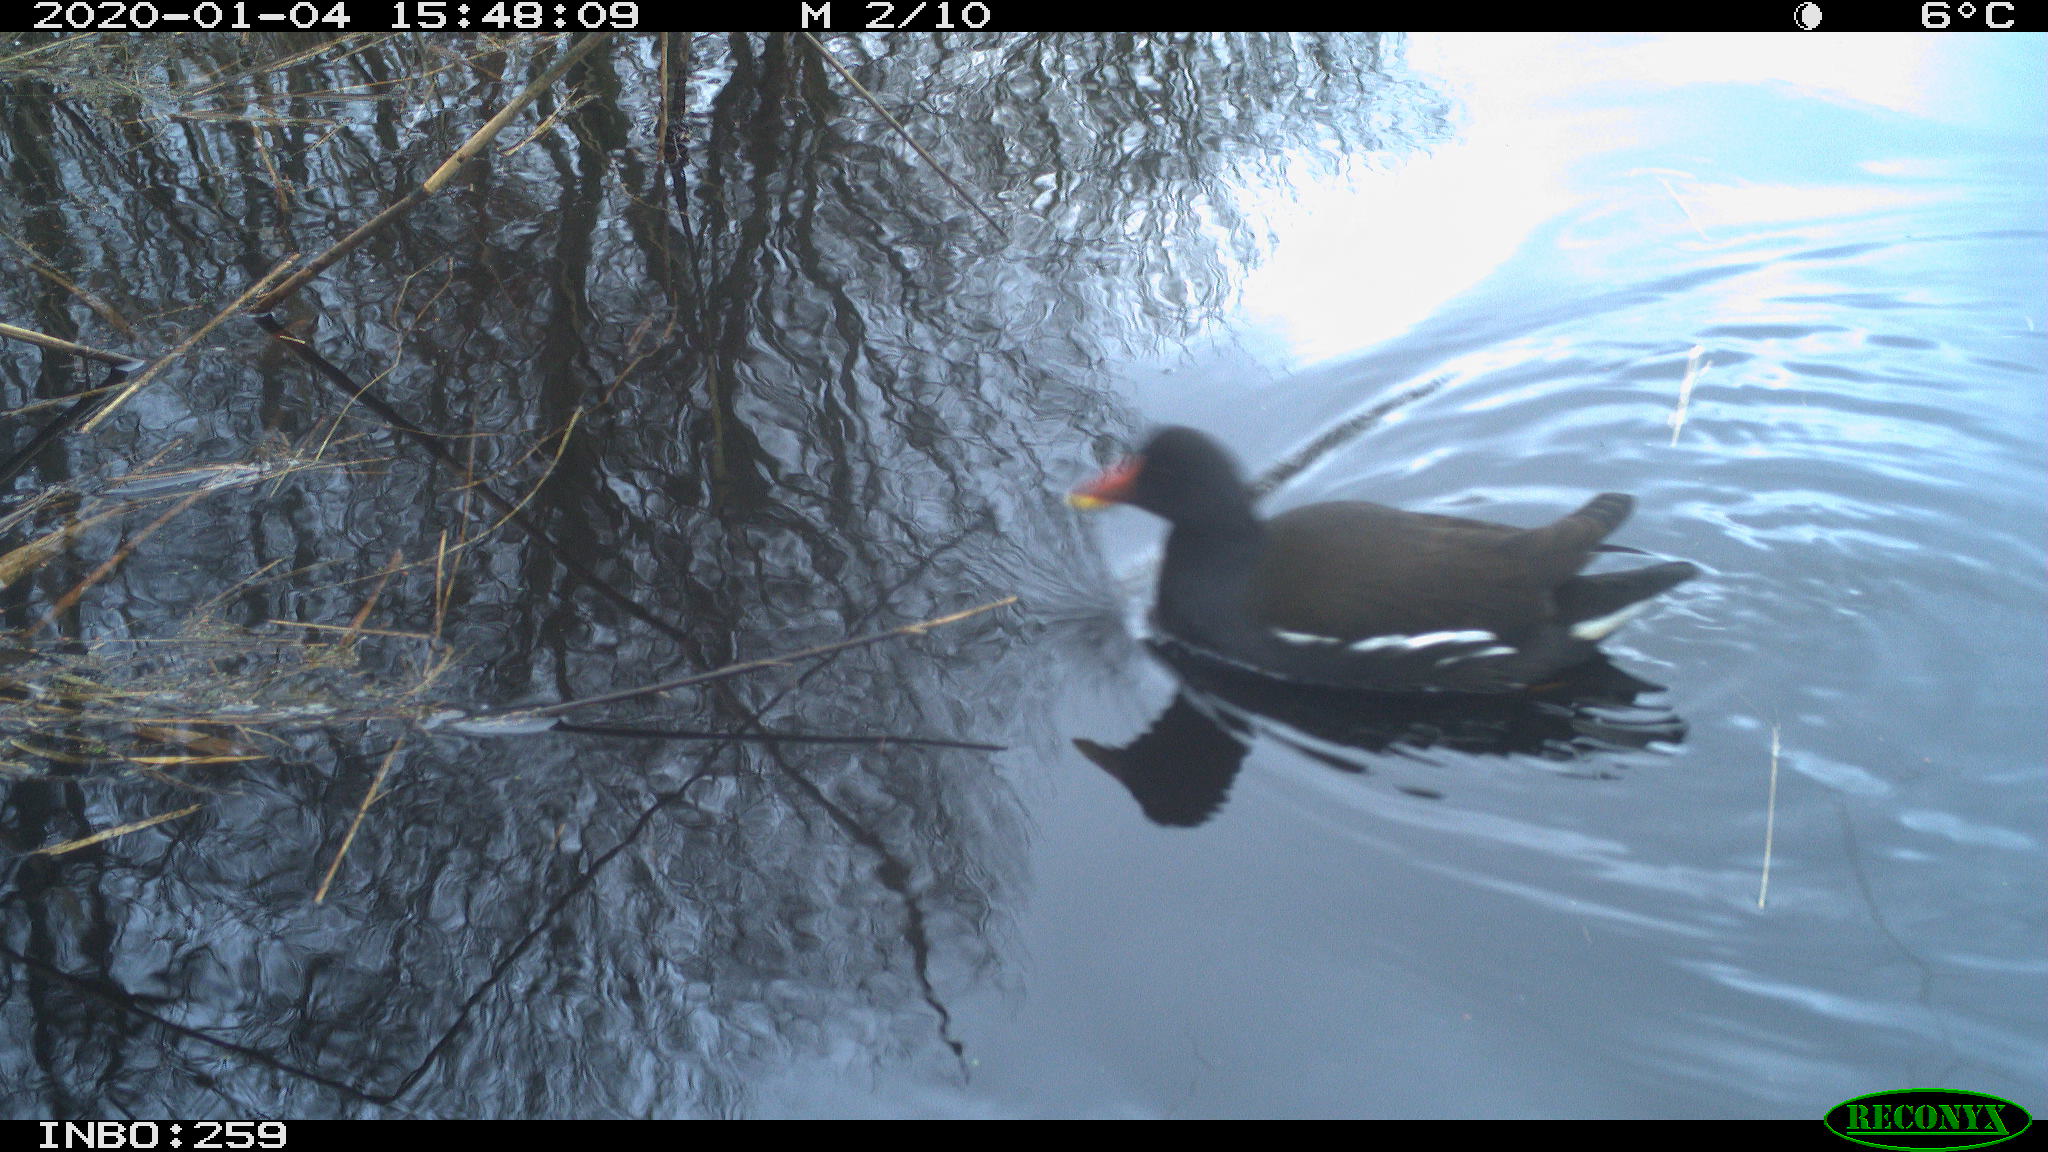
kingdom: Animalia
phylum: Chordata
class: Aves
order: Gruiformes
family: Rallidae
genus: Gallinula
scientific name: Gallinula chloropus
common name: Common moorhen
